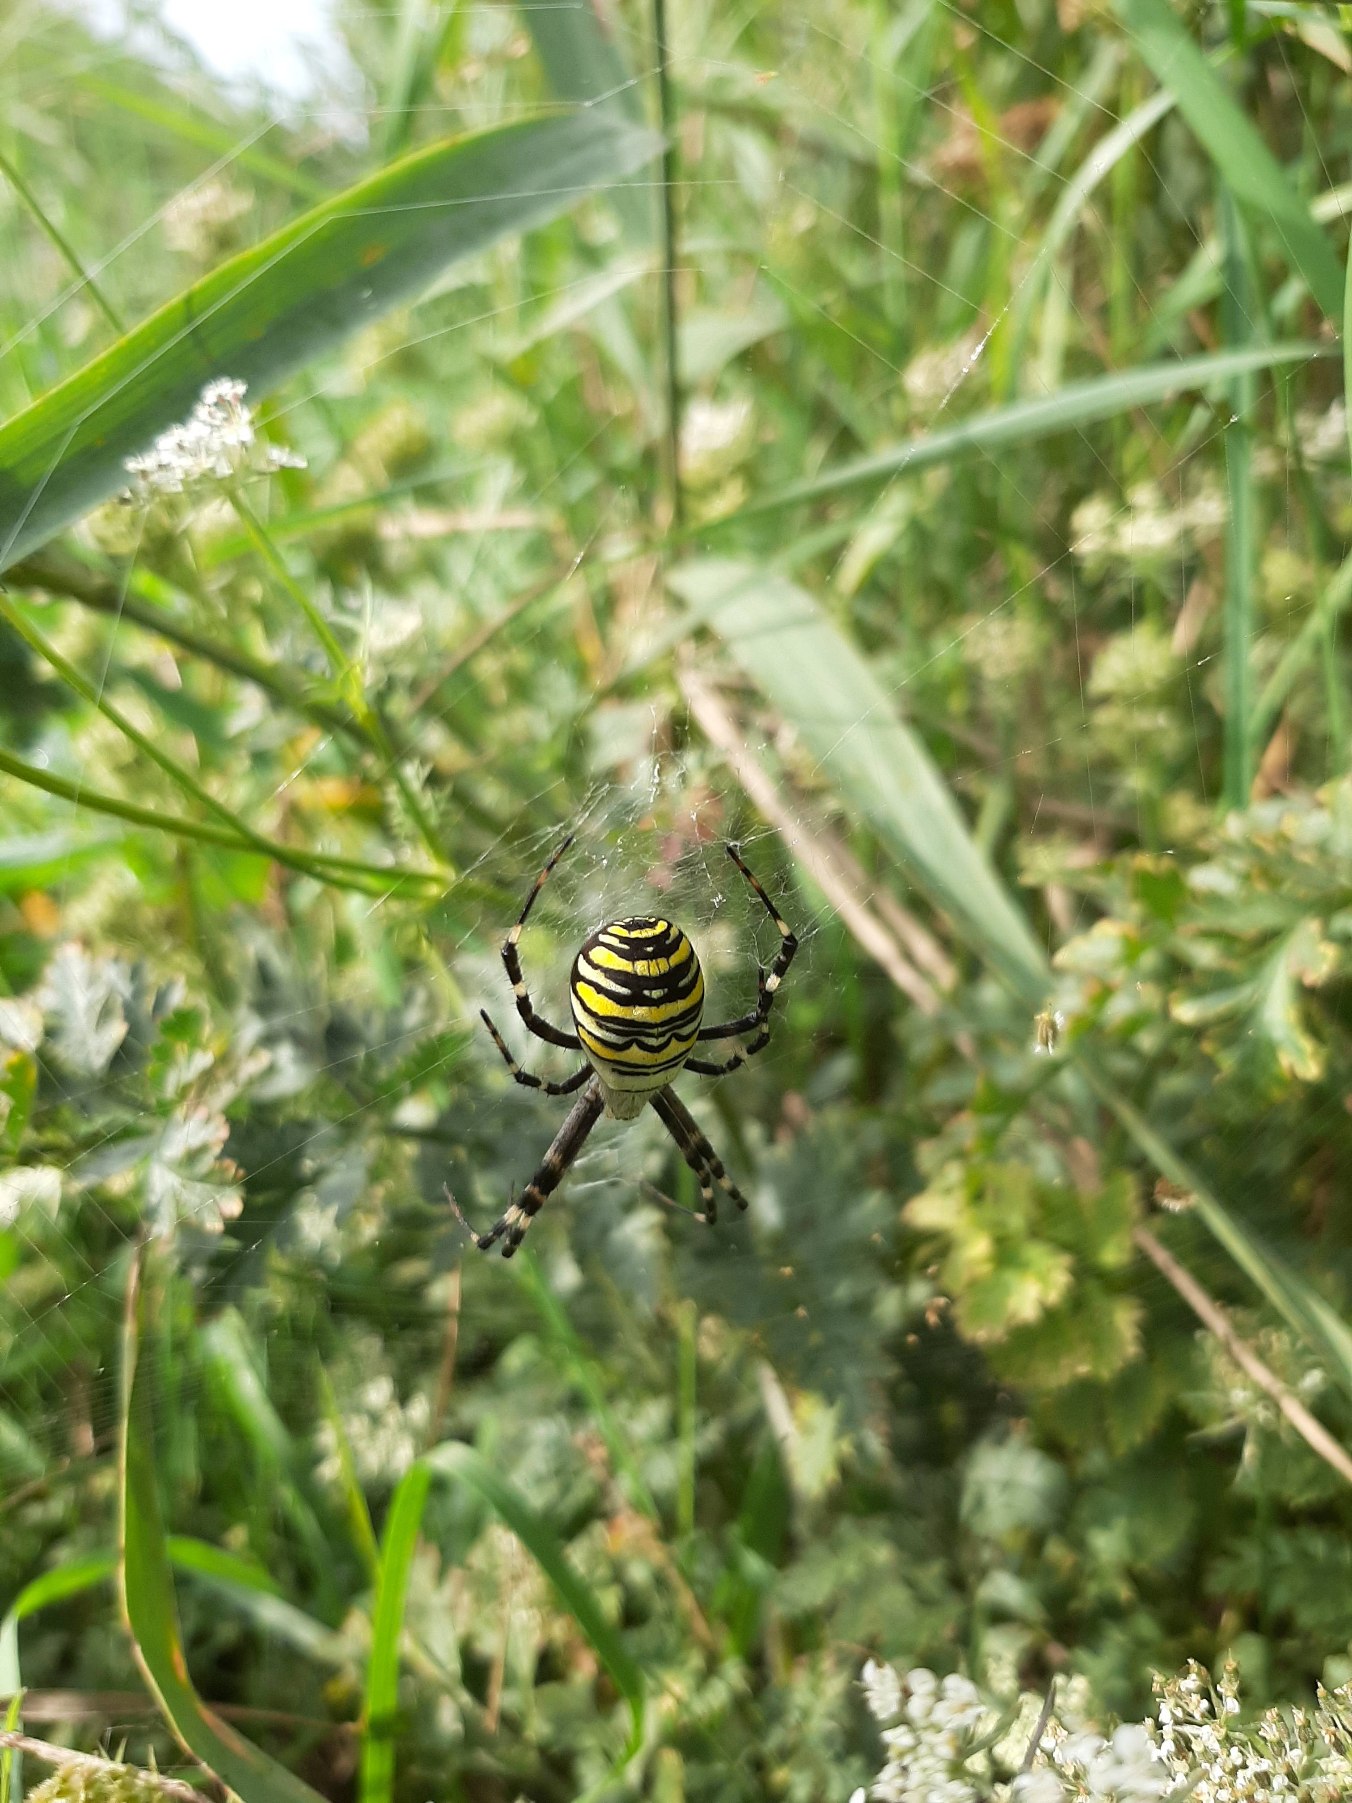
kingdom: Animalia
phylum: Arthropoda
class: Arachnida
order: Araneae
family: Araneidae
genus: Argiope
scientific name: Argiope bruennichi
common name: Hvepseedderkop
